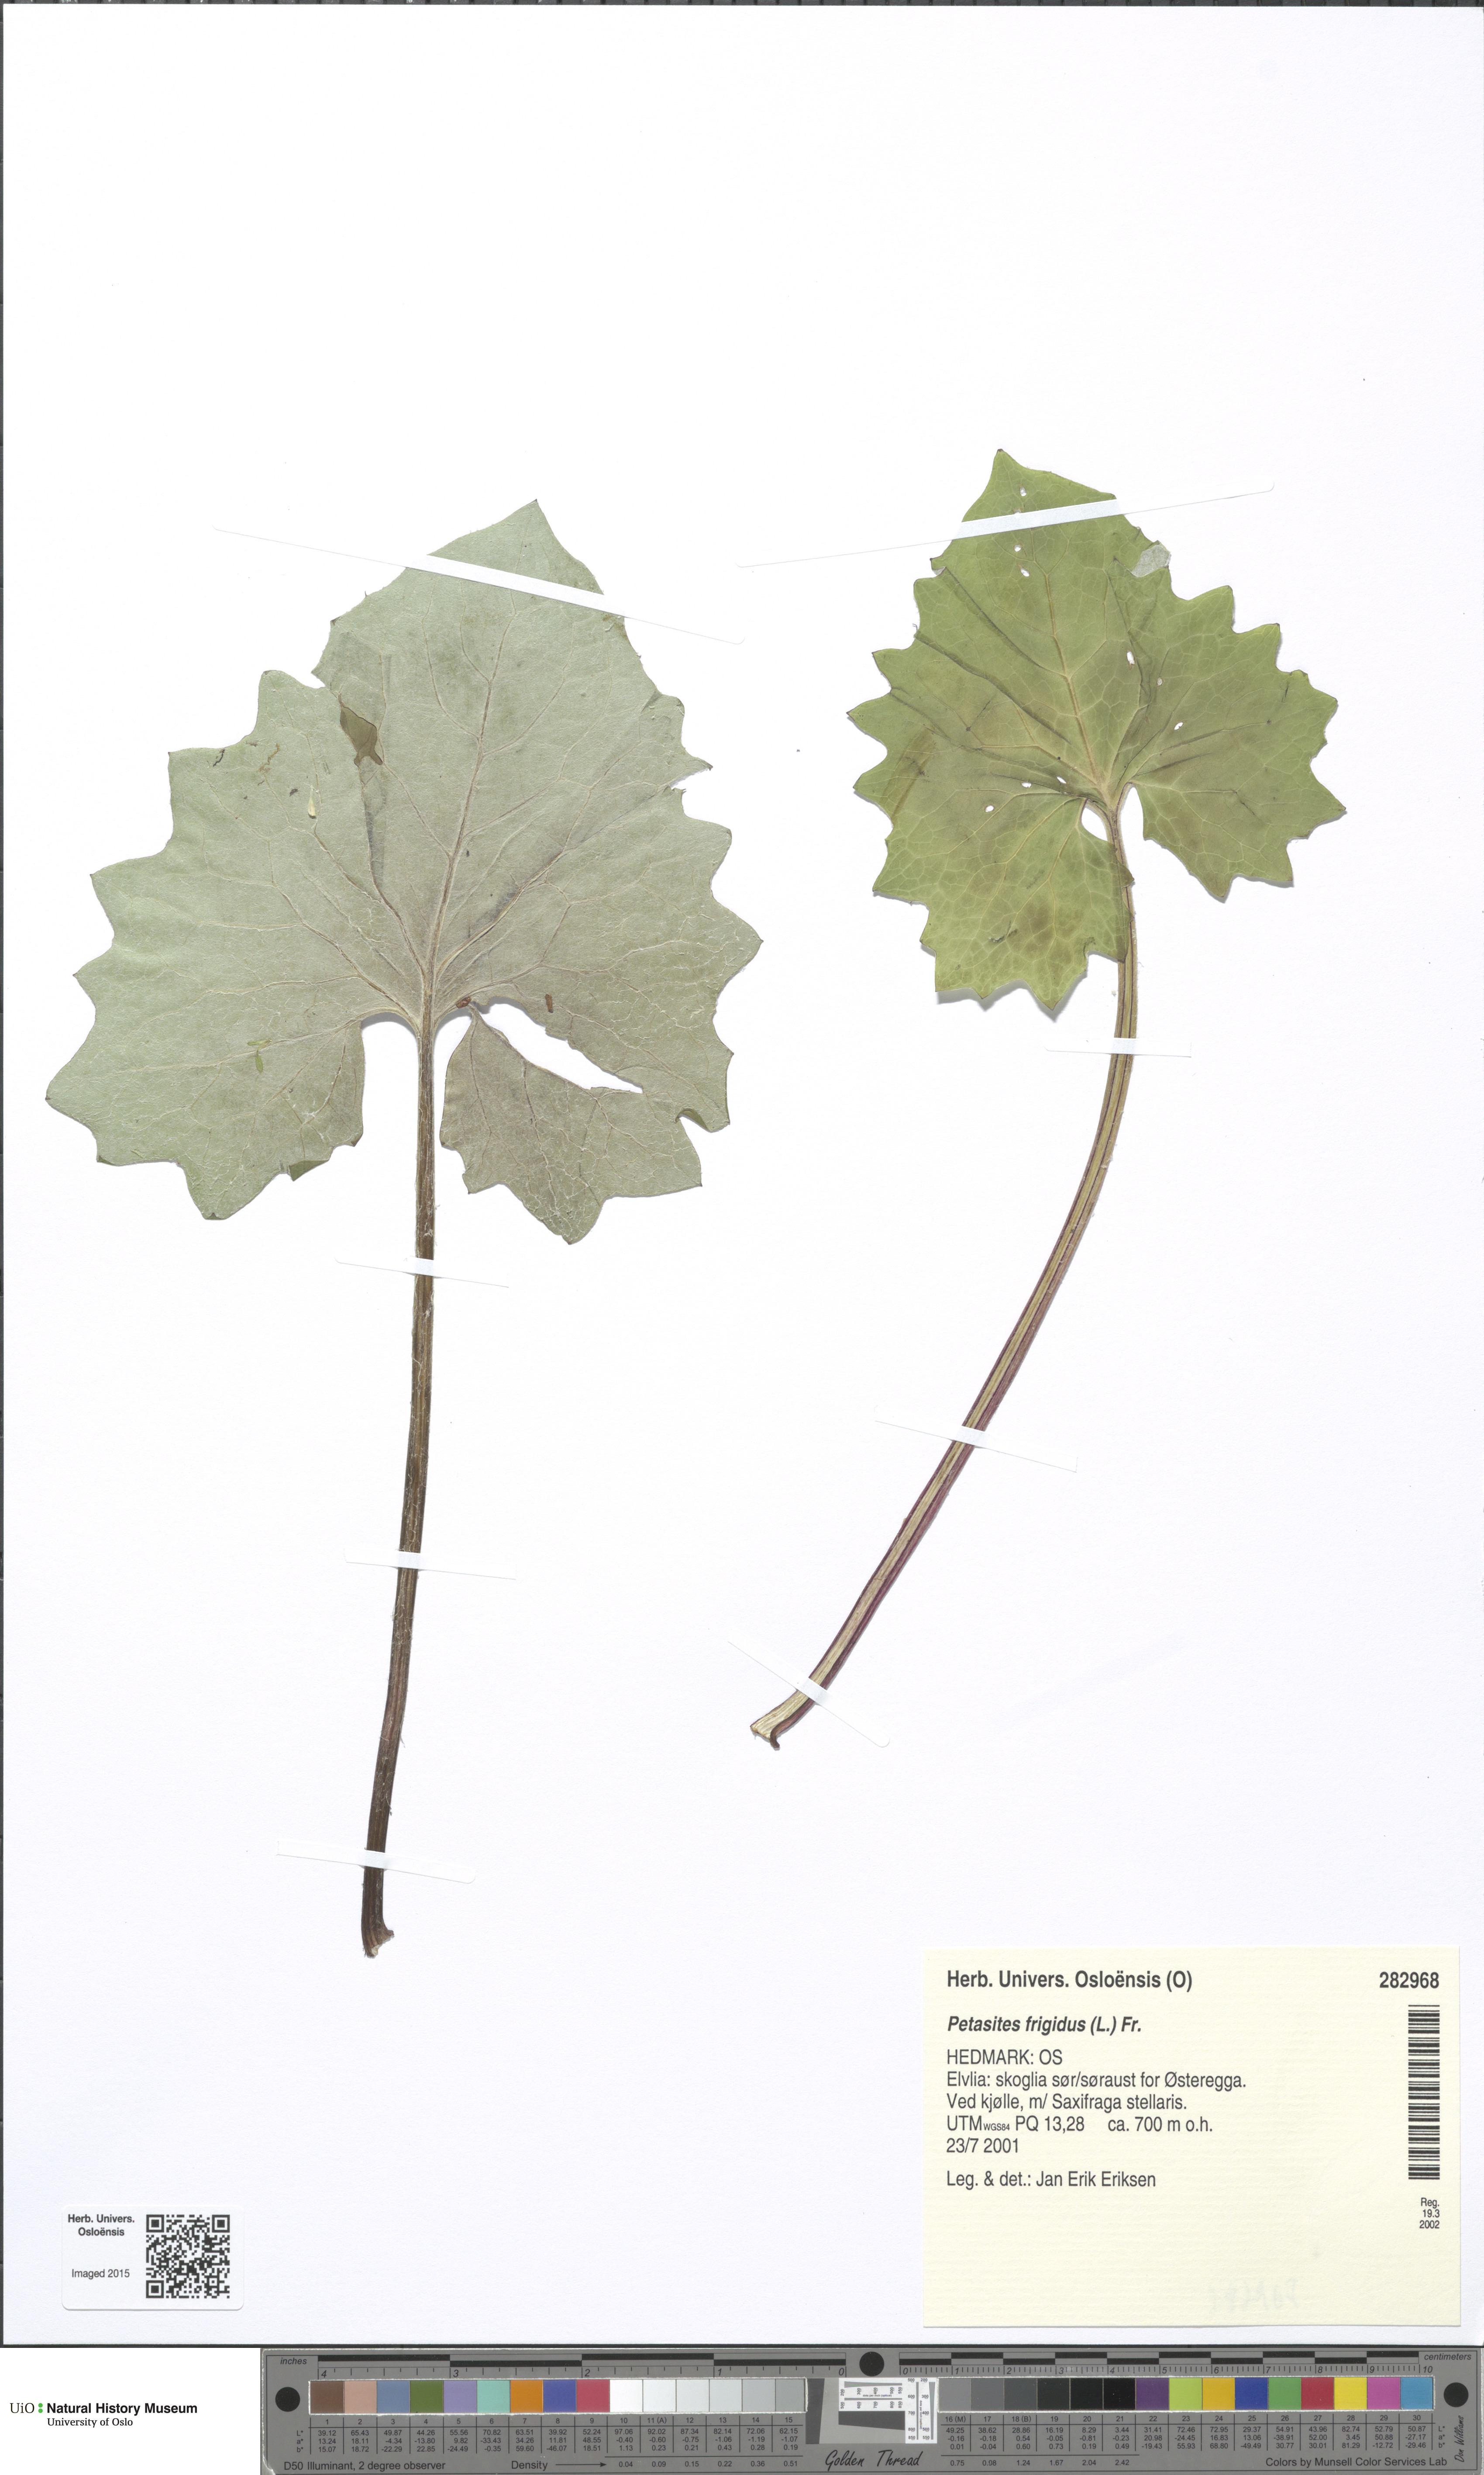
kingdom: Plantae
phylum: Tracheophyta
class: Magnoliopsida
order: Asterales
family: Asteraceae
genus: Petasites
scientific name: Petasites frigidus
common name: Arctic butterbur
